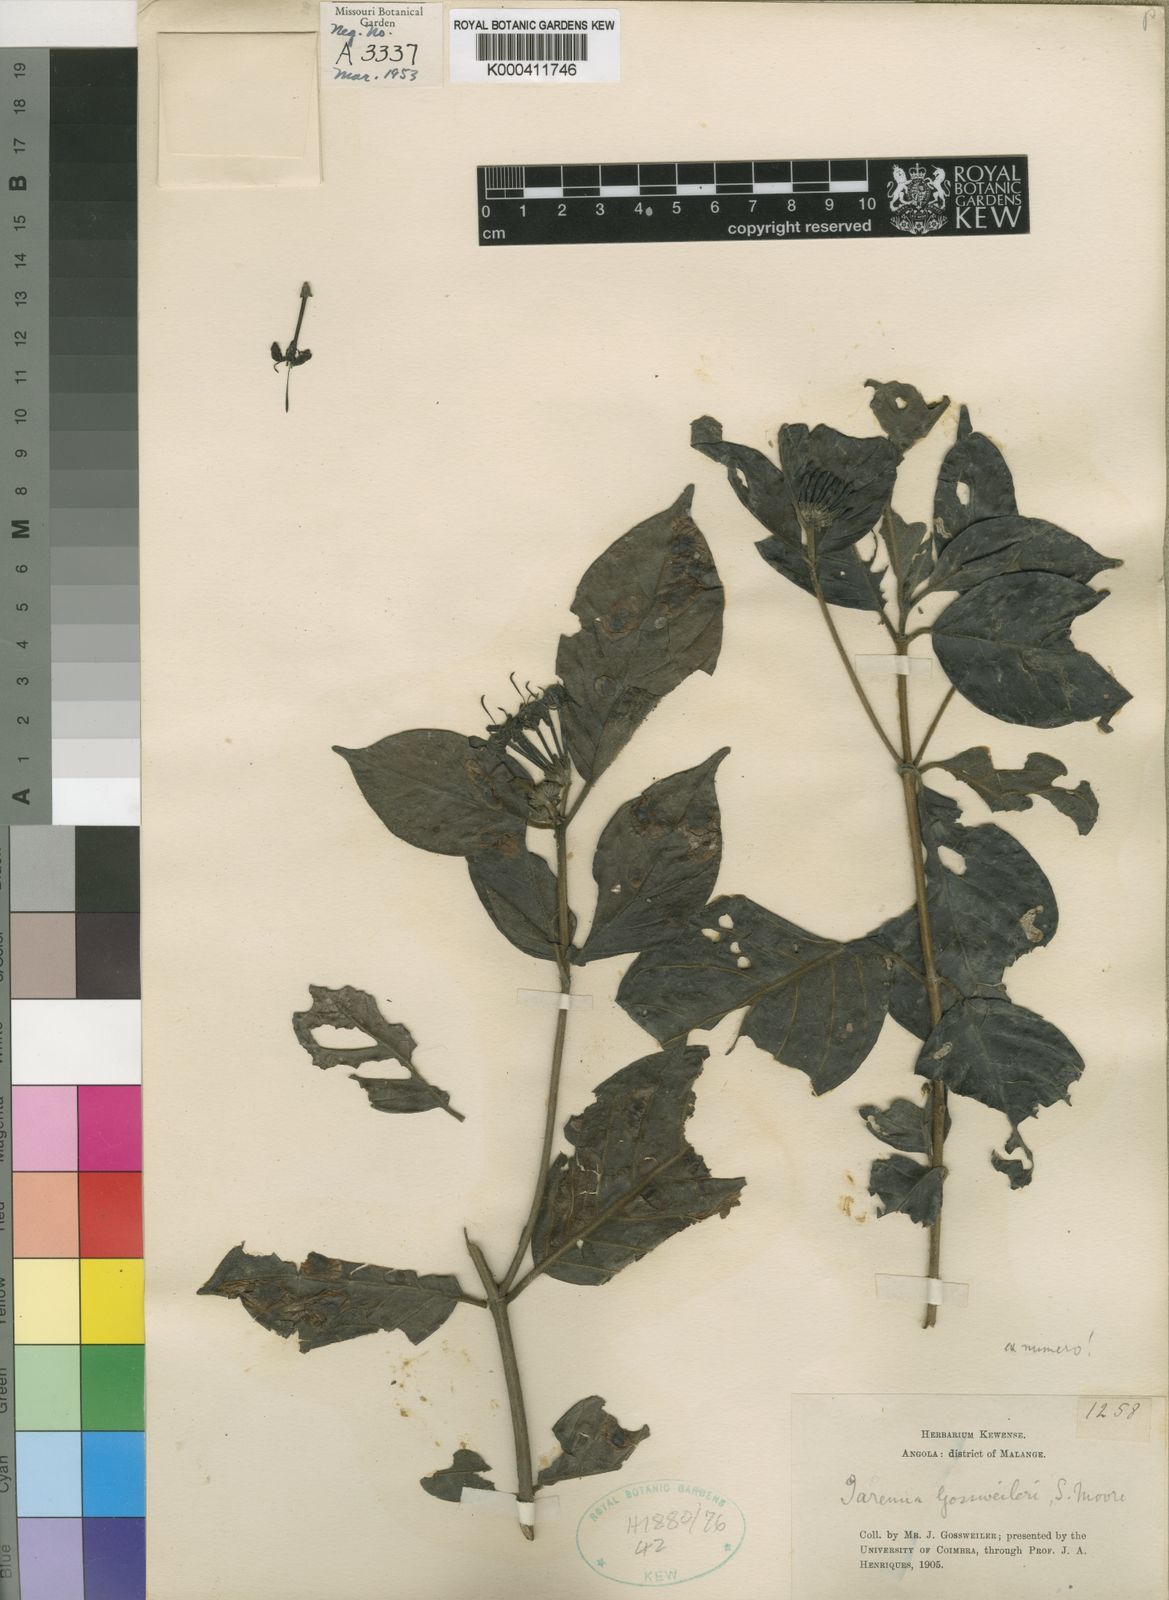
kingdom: Plantae
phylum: Tracheophyta
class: Magnoliopsida
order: Gentianales
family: Rubiaceae
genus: Tarenna
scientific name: Tarenna gossweileri
